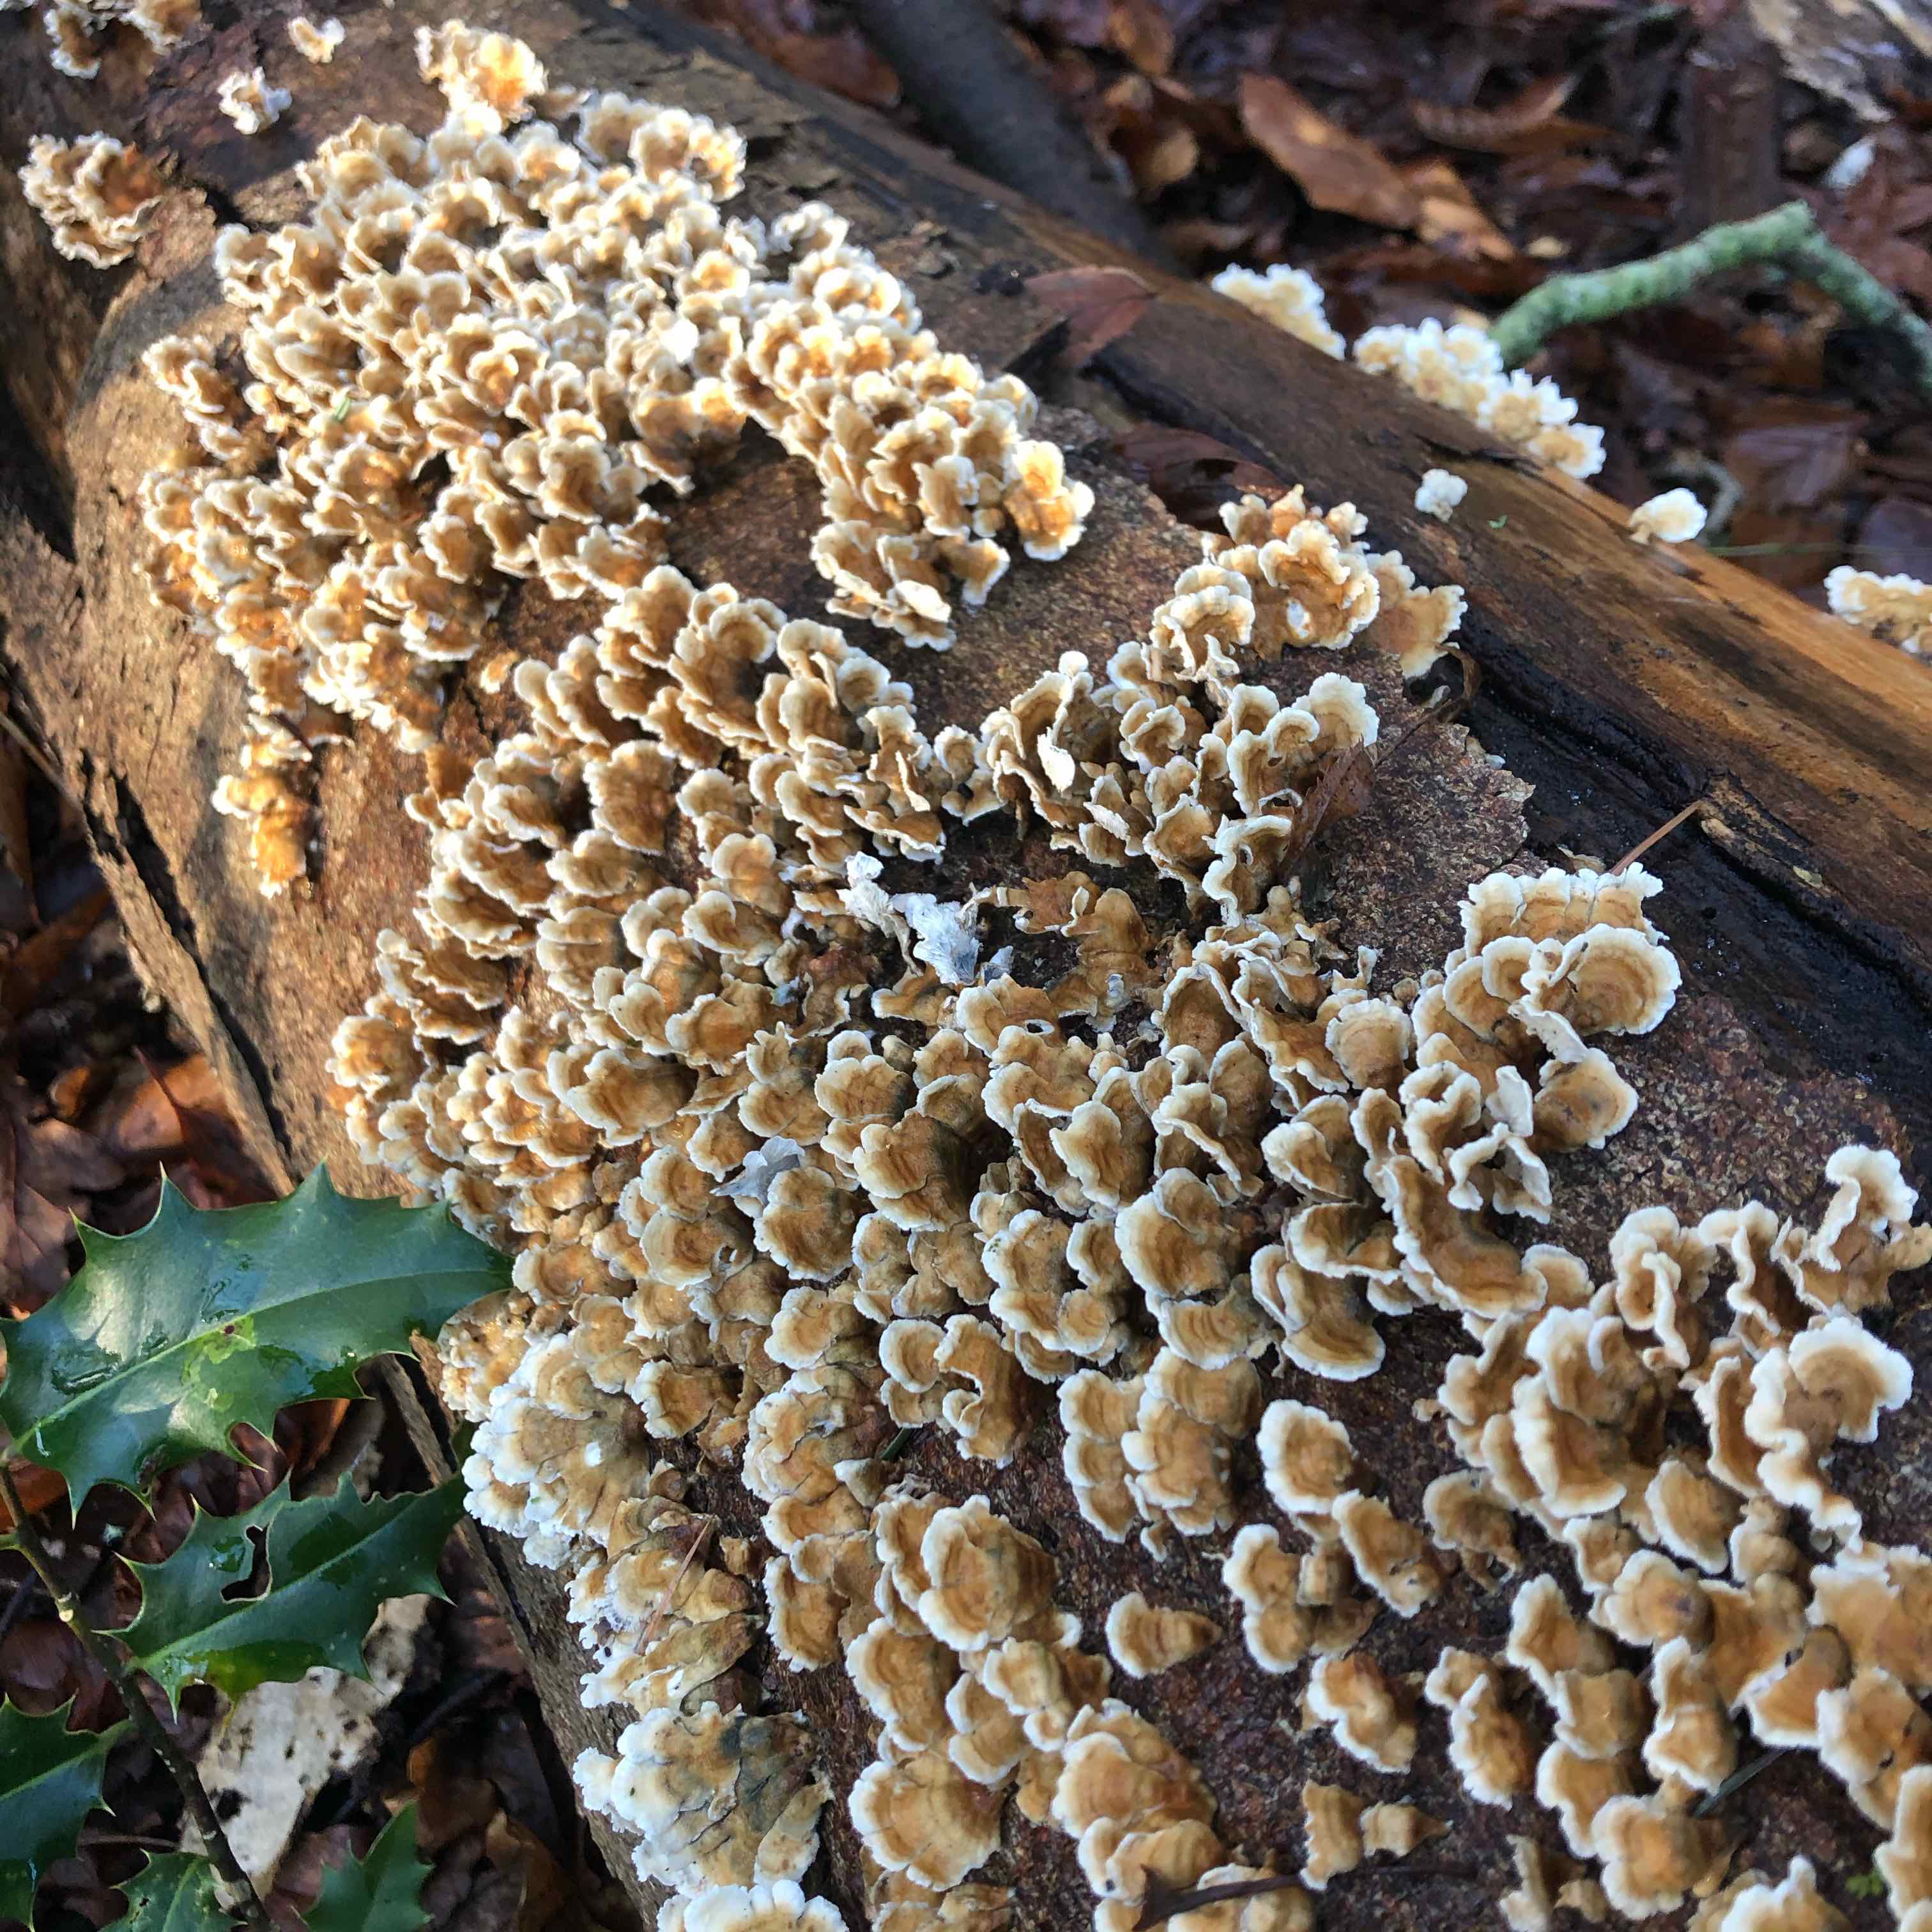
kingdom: Fungi
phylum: Basidiomycota
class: Agaricomycetes
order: Amylocorticiales
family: Amylocorticiaceae
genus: Plicaturopsis
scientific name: Plicaturopsis crispa
